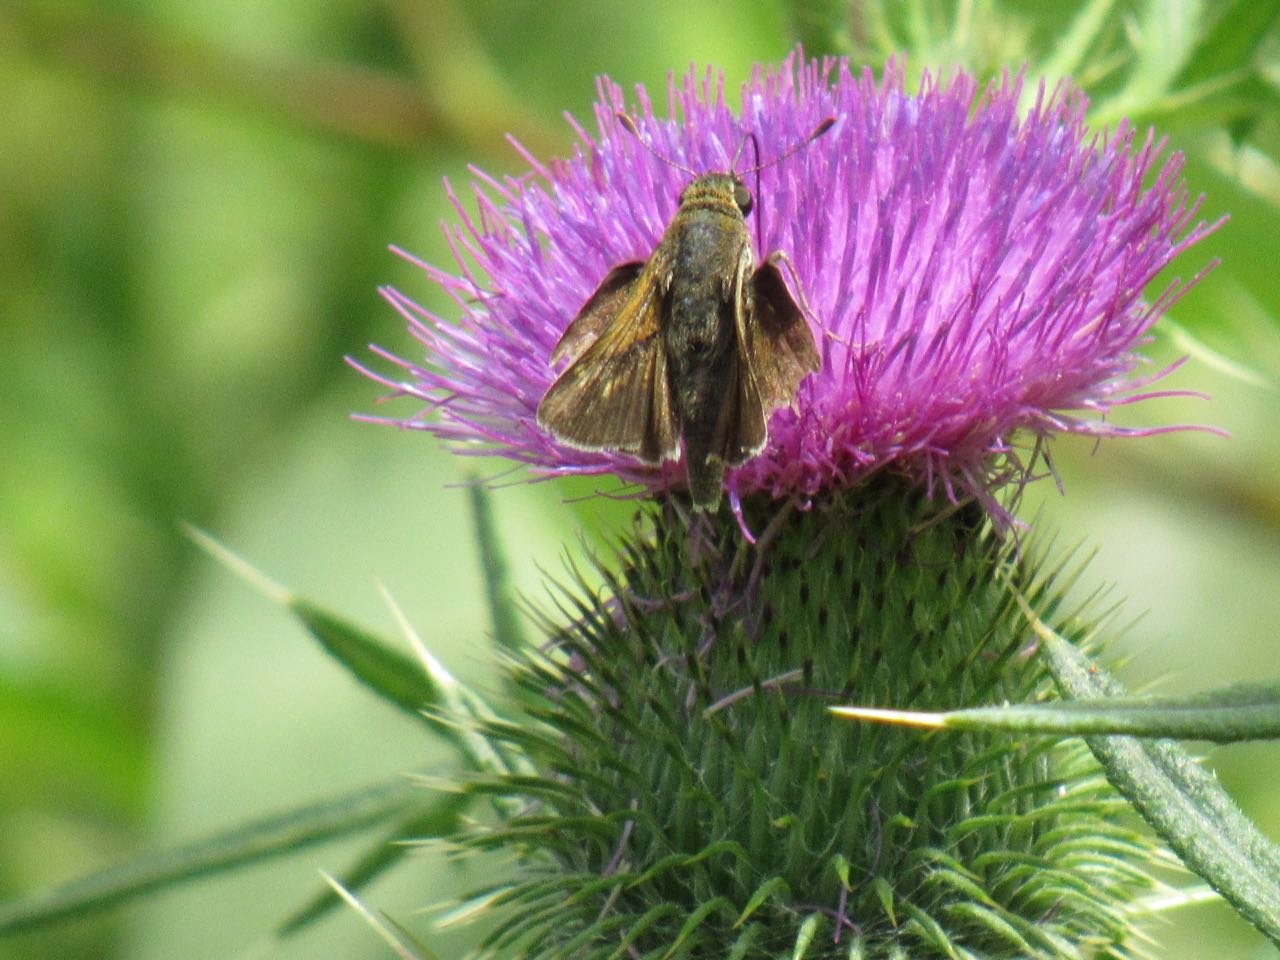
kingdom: Animalia
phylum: Arthropoda
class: Insecta
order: Lepidoptera
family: Hesperiidae
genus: Polites
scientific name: Polites themistocles
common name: Tawny-edged Skipper
